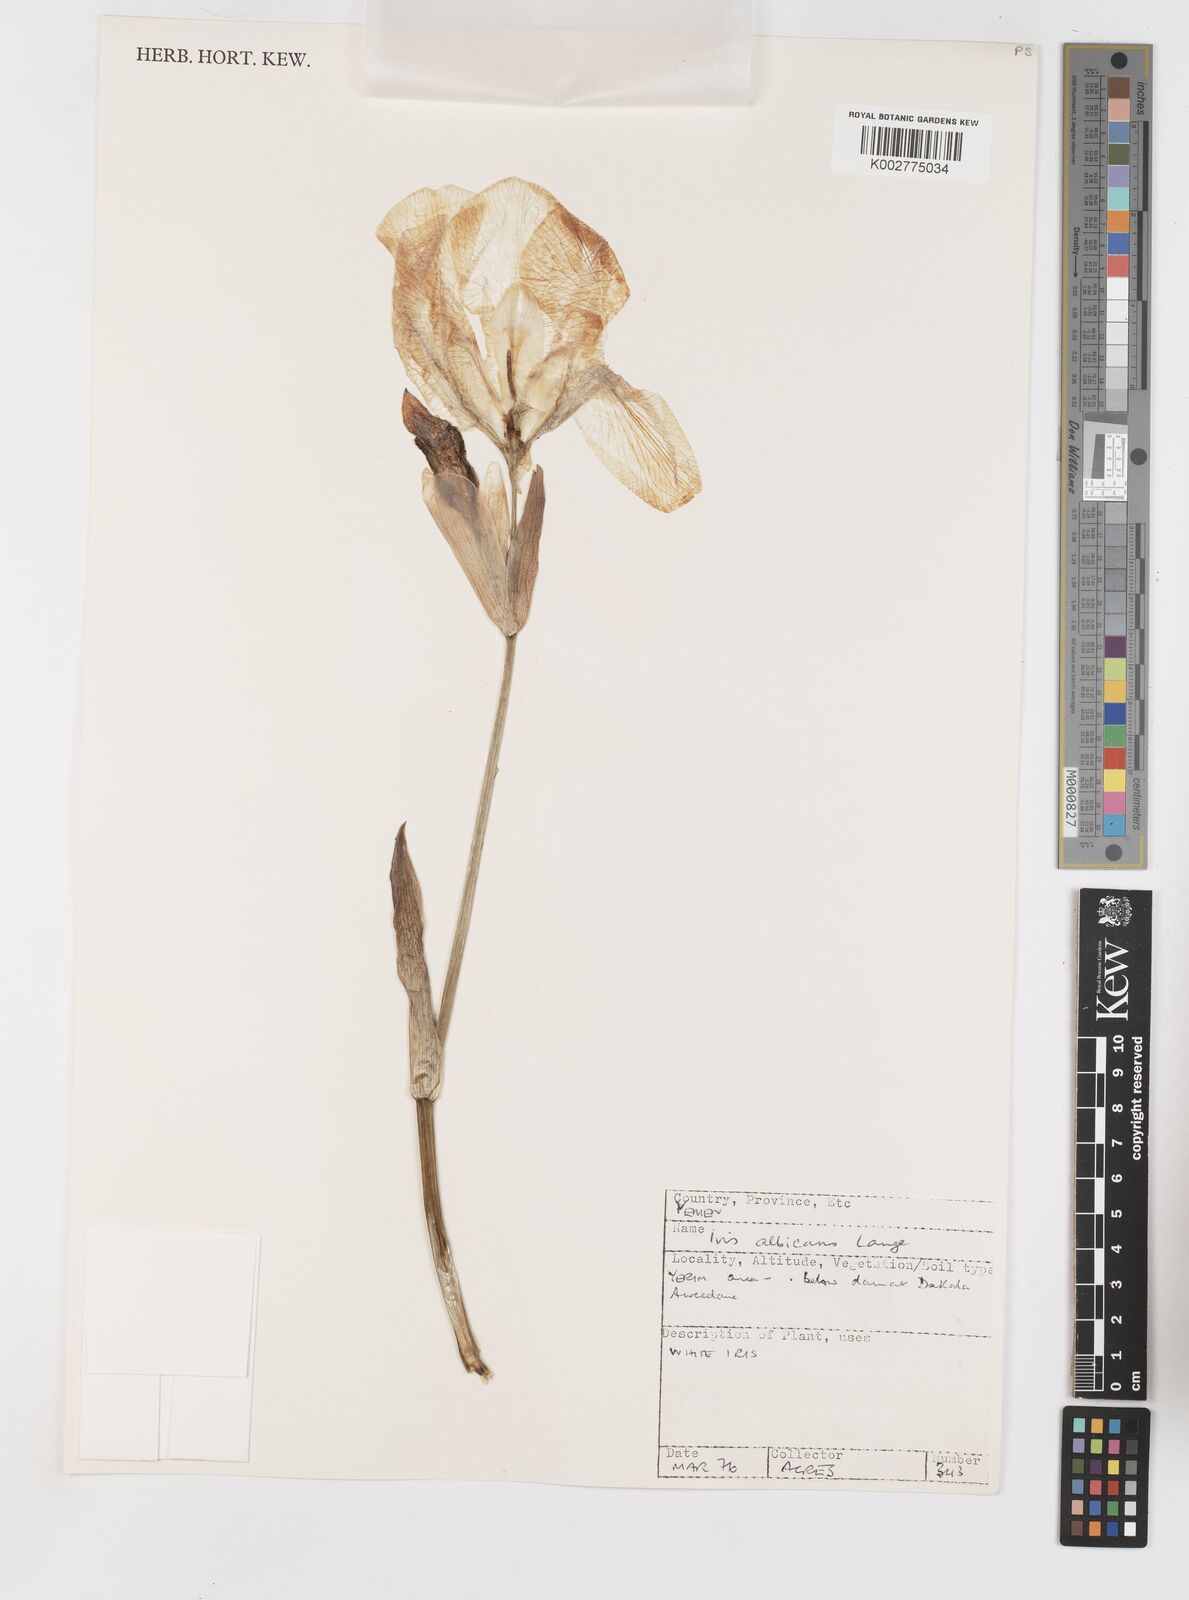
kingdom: Plantae
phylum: Tracheophyta
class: Liliopsida
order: Asparagales
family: Iridaceae
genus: Iris
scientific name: Iris florentina
